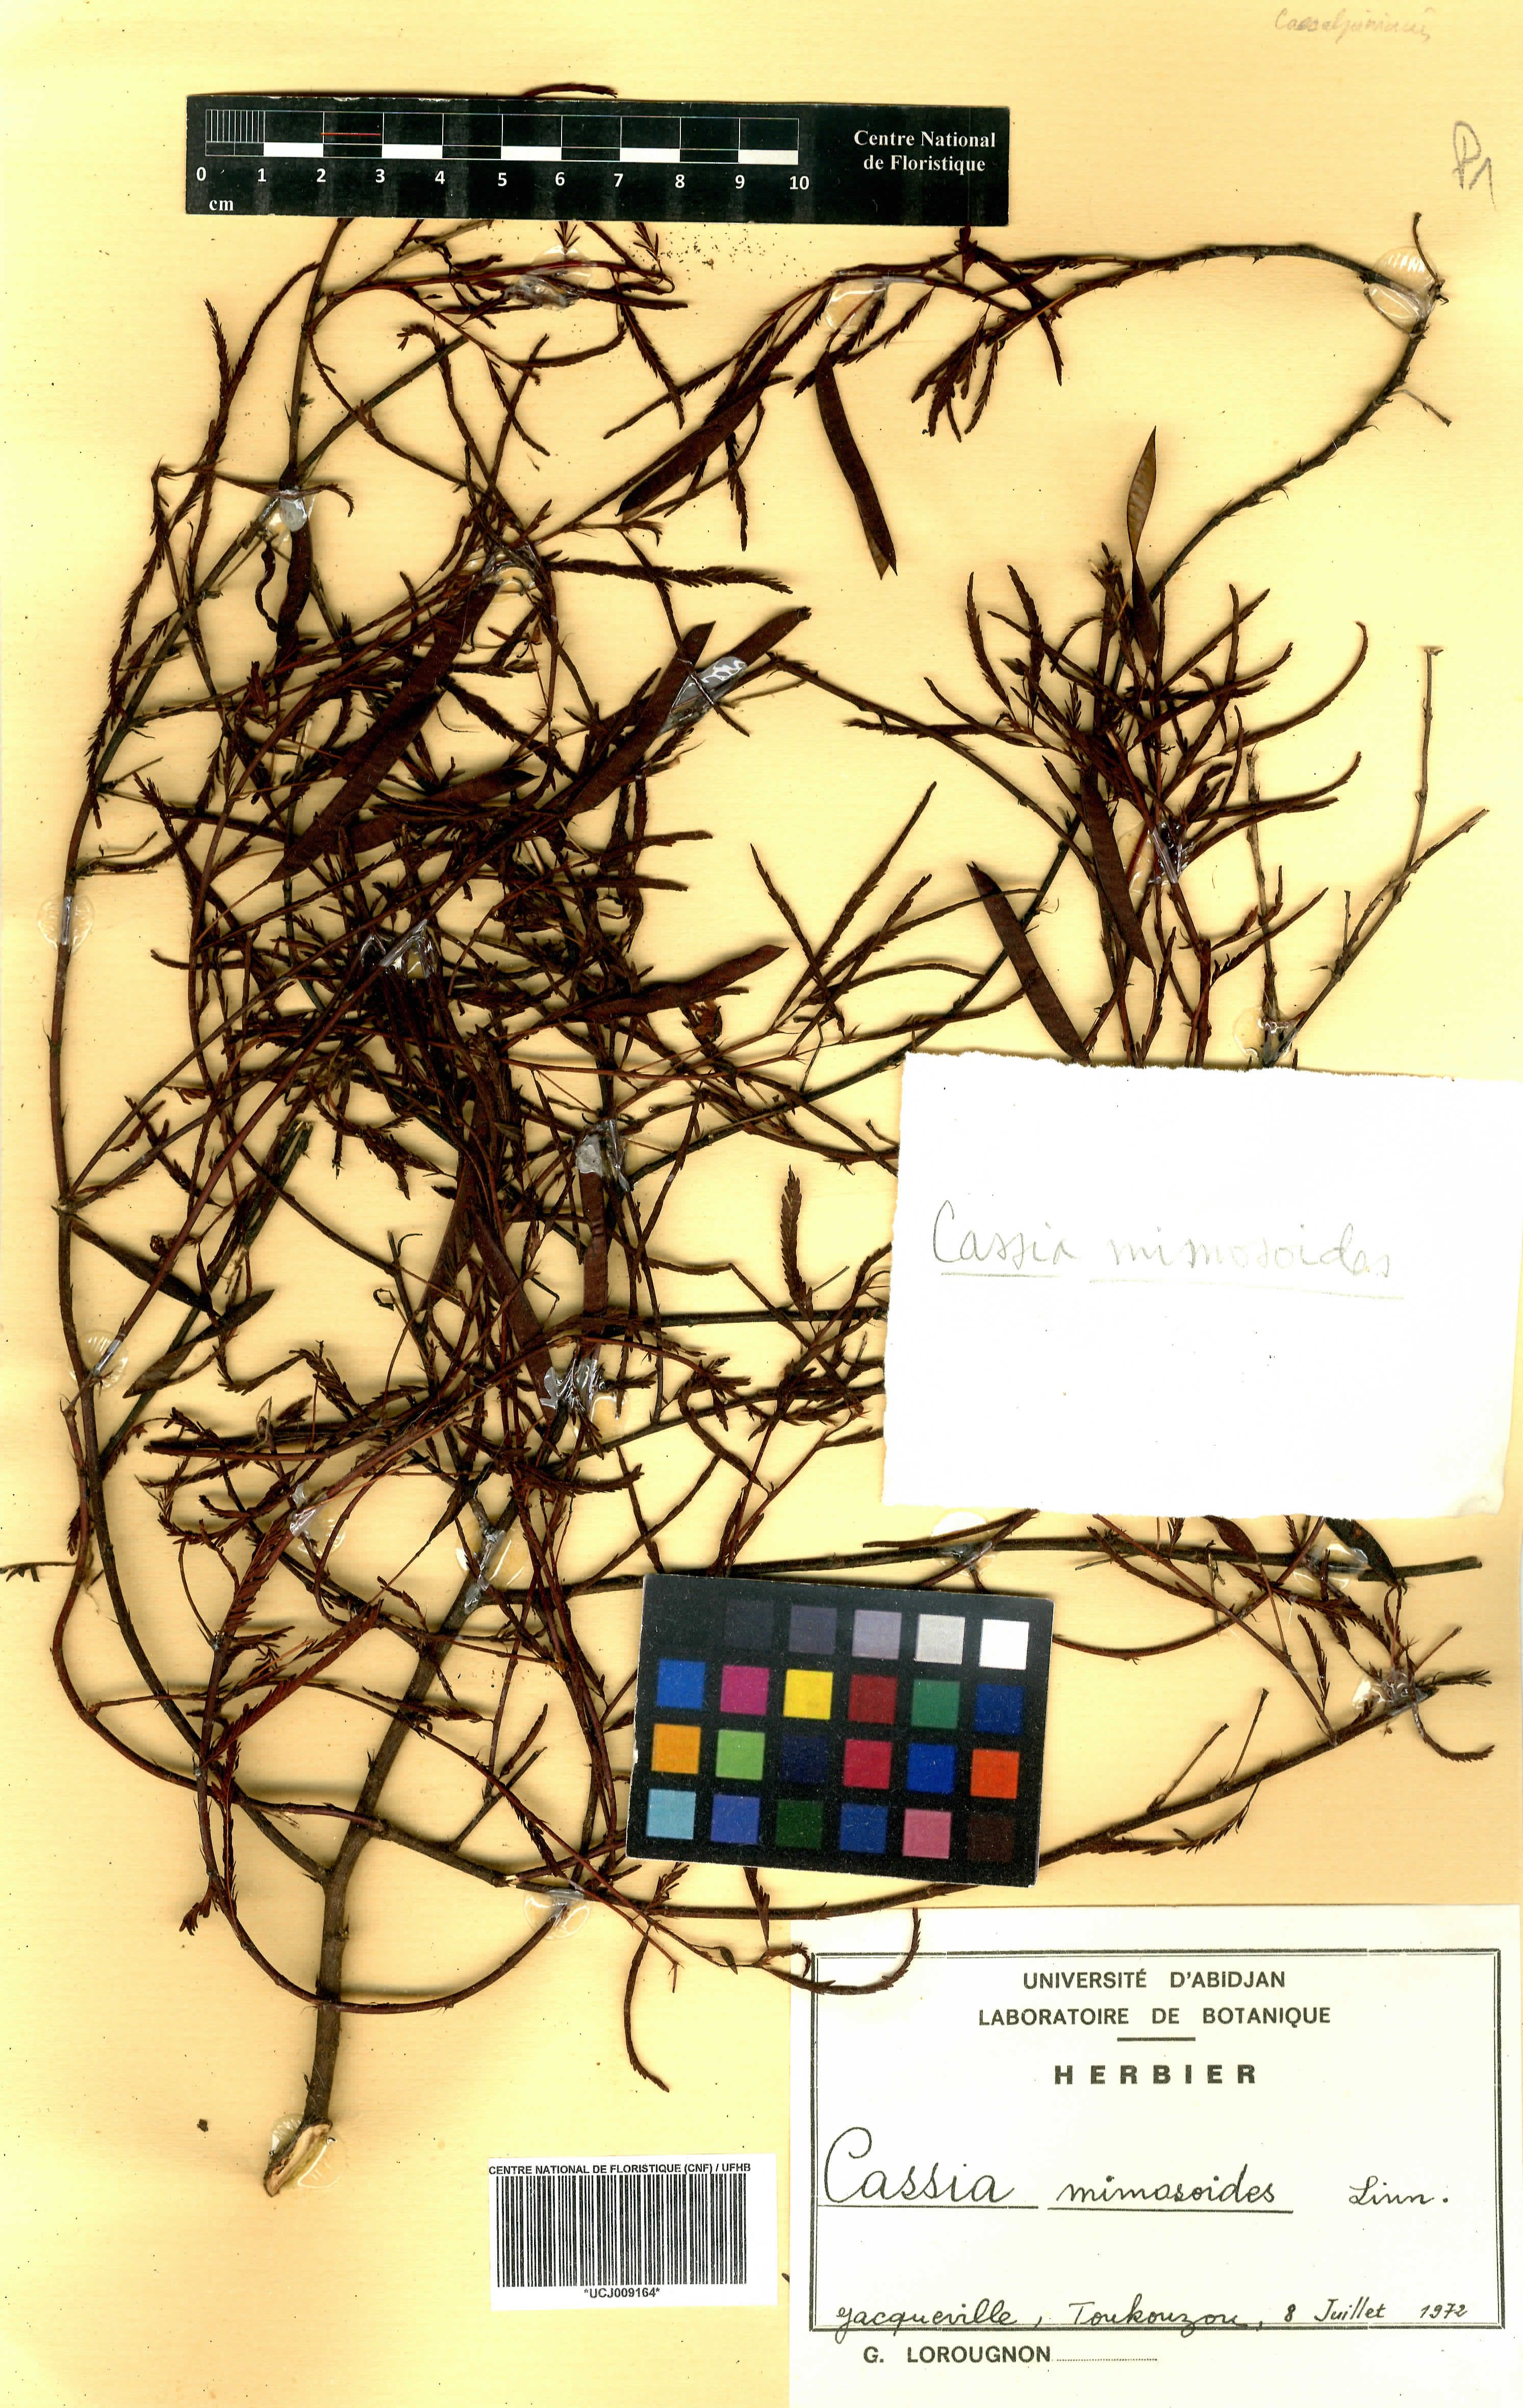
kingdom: Plantae
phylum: Tracheophyta
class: Magnoliopsida
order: Fabales
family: Fabaceae
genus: Chamaecrista
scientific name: Chamaecrista mimosoides
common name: Fish-bone cassia
